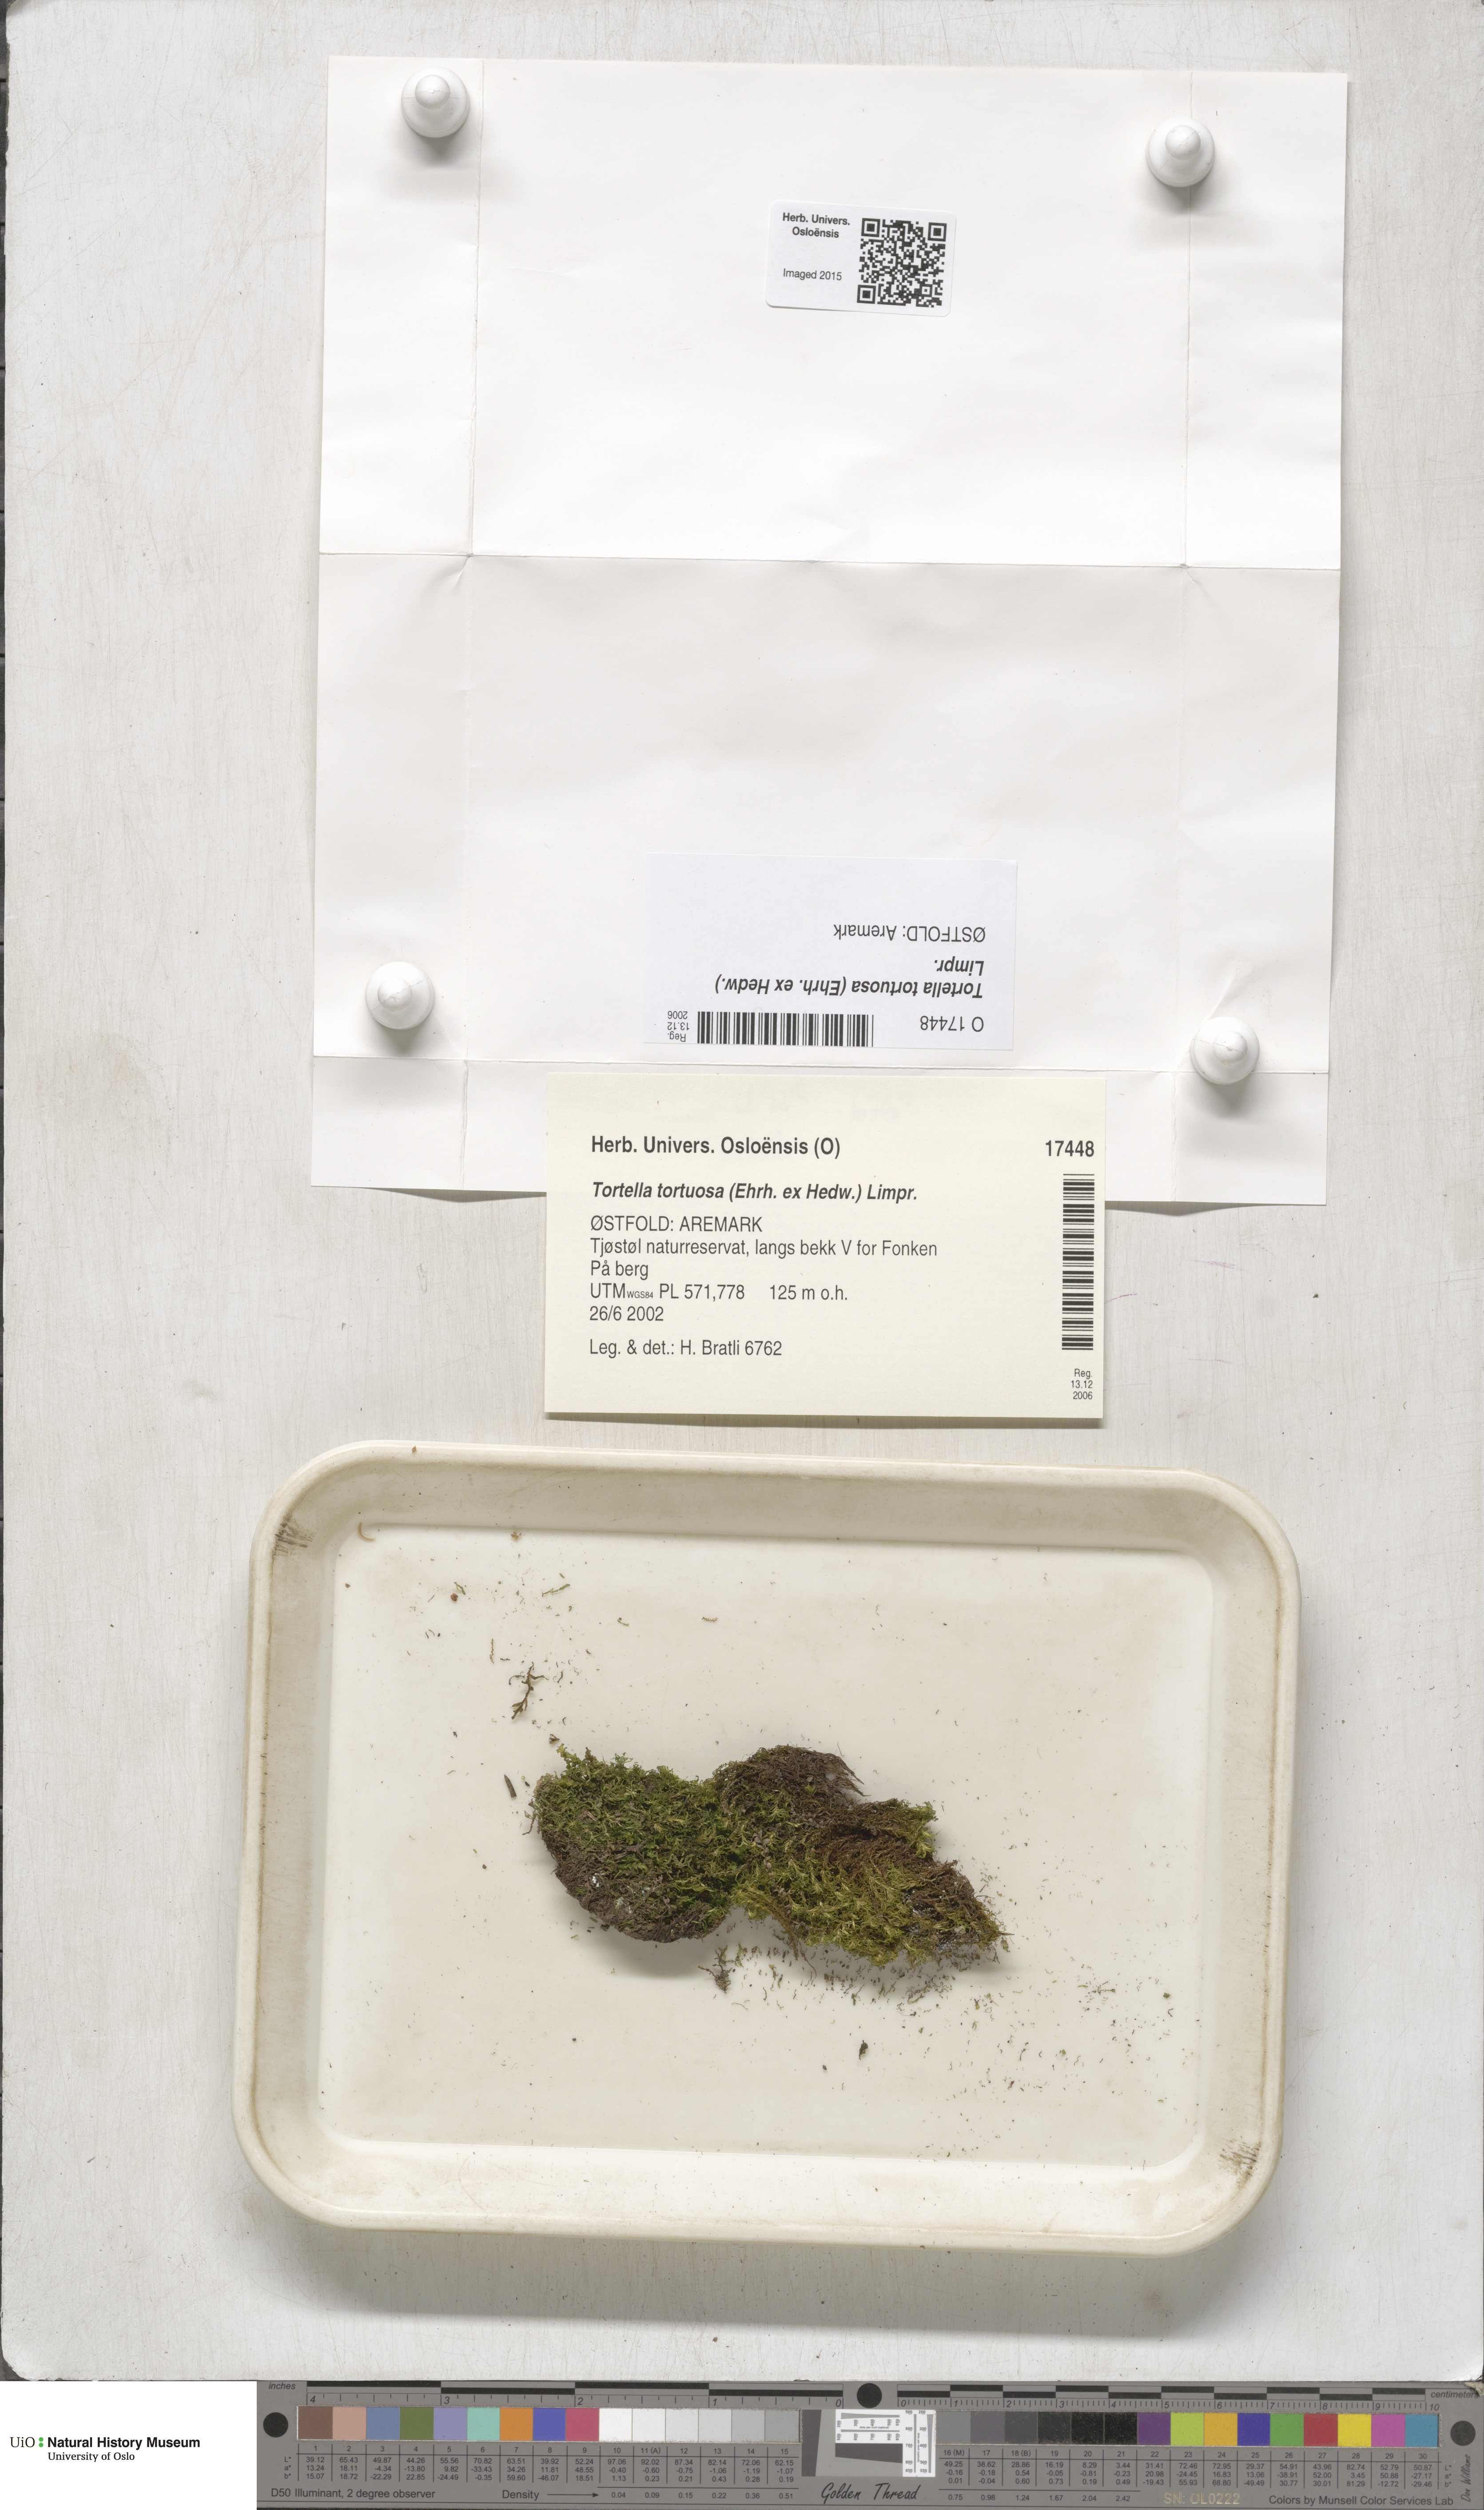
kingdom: Plantae
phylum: Bryophyta
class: Bryopsida
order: Pottiales
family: Pottiaceae
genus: Tortella
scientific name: Tortella tortuosa
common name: Frizzled crisp moss
